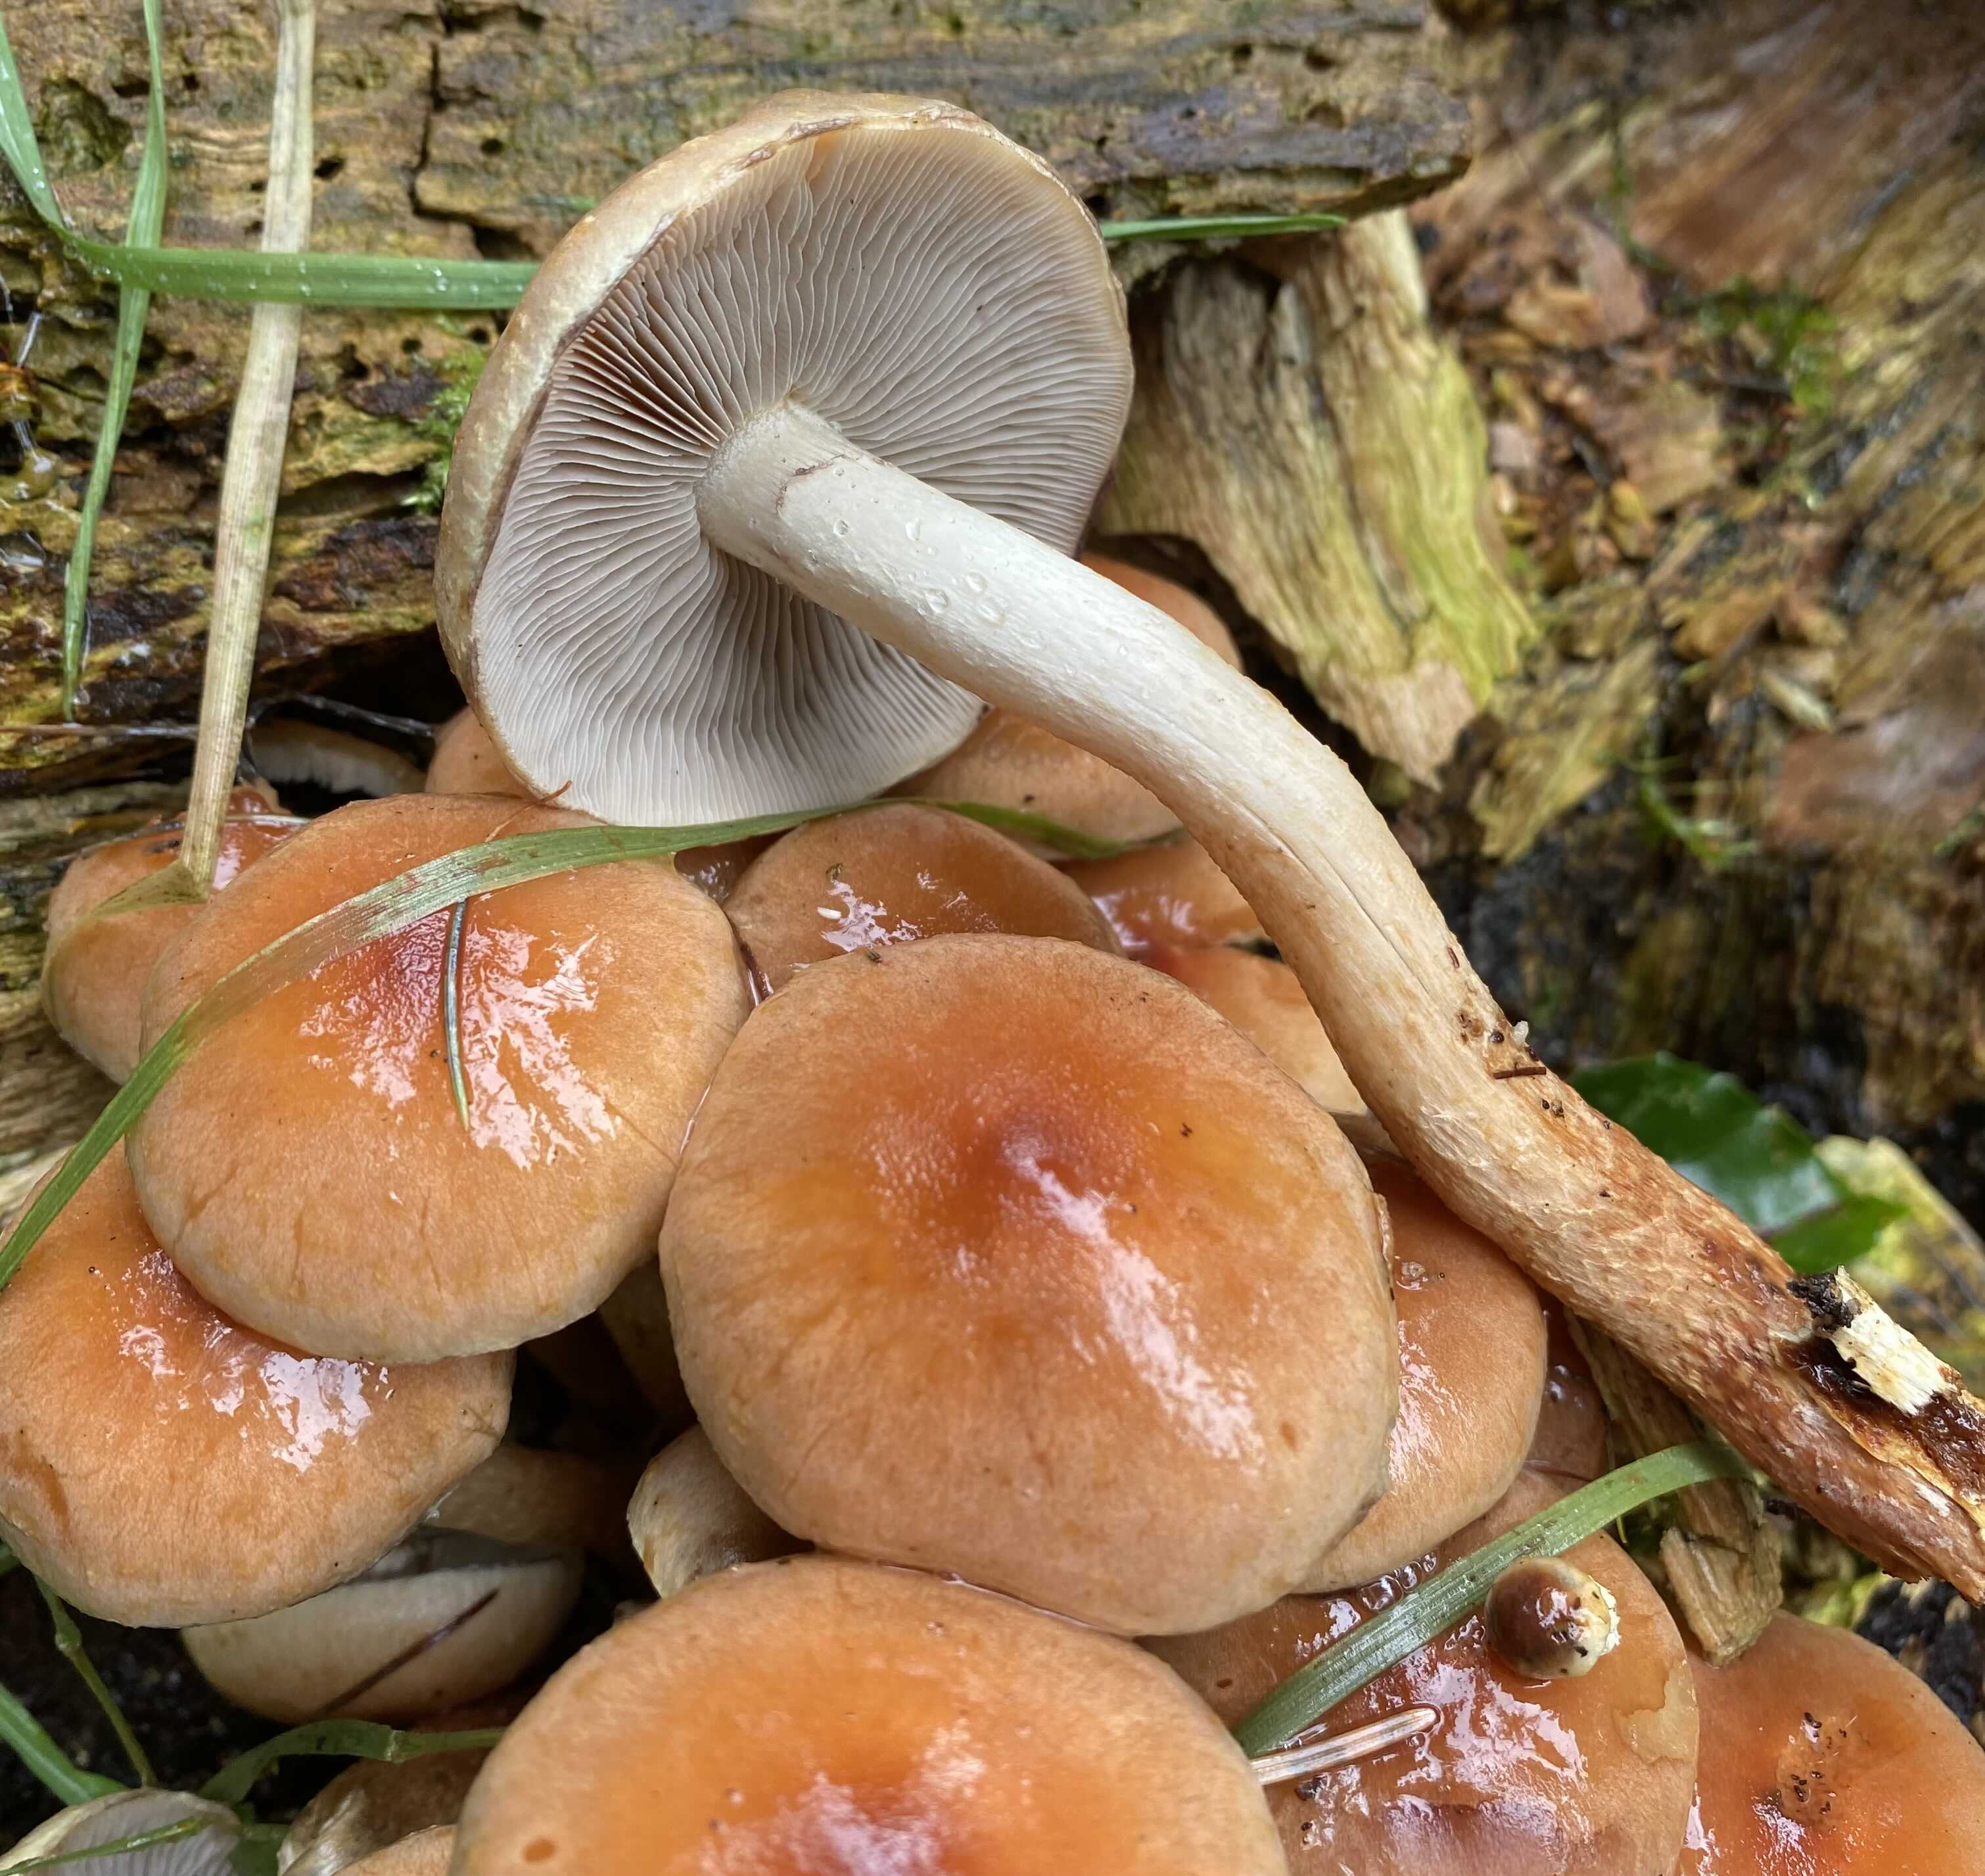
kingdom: Fungi
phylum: Basidiomycota
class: Agaricomycetes
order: Agaricales
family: Strophariaceae
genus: Hypholoma
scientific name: Hypholoma lateritium
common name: teglrød svovlhat
